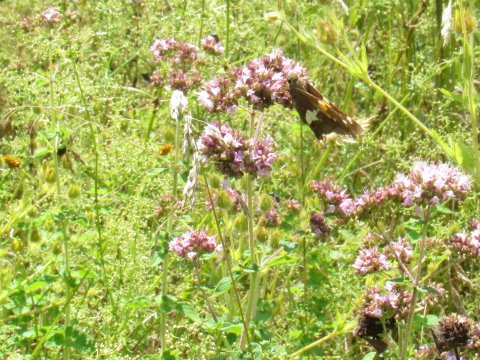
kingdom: Animalia
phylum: Arthropoda
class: Insecta
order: Lepidoptera
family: Hesperiidae
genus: Epargyreus
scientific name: Epargyreus clarus
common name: Silver-spotted Skipper
